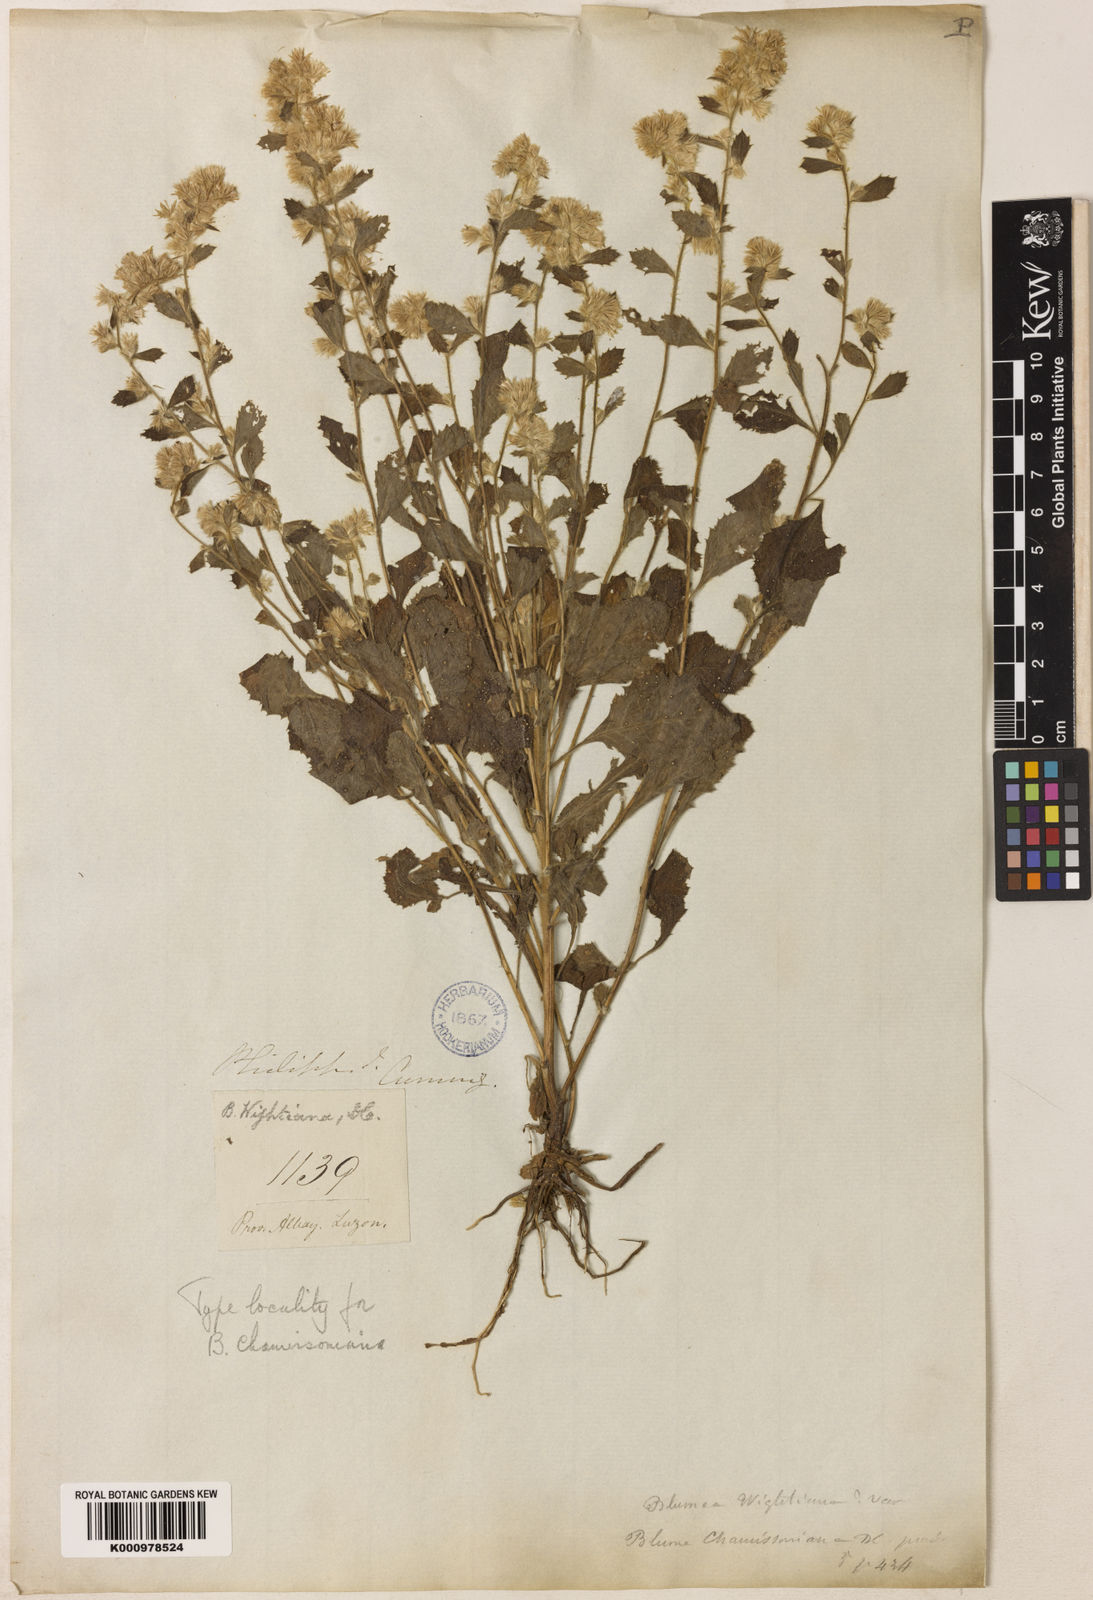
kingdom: Plantae
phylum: Tracheophyta
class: Magnoliopsida
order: Asterales
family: Asteraceae
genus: Blumea
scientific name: Blumea axillaris
